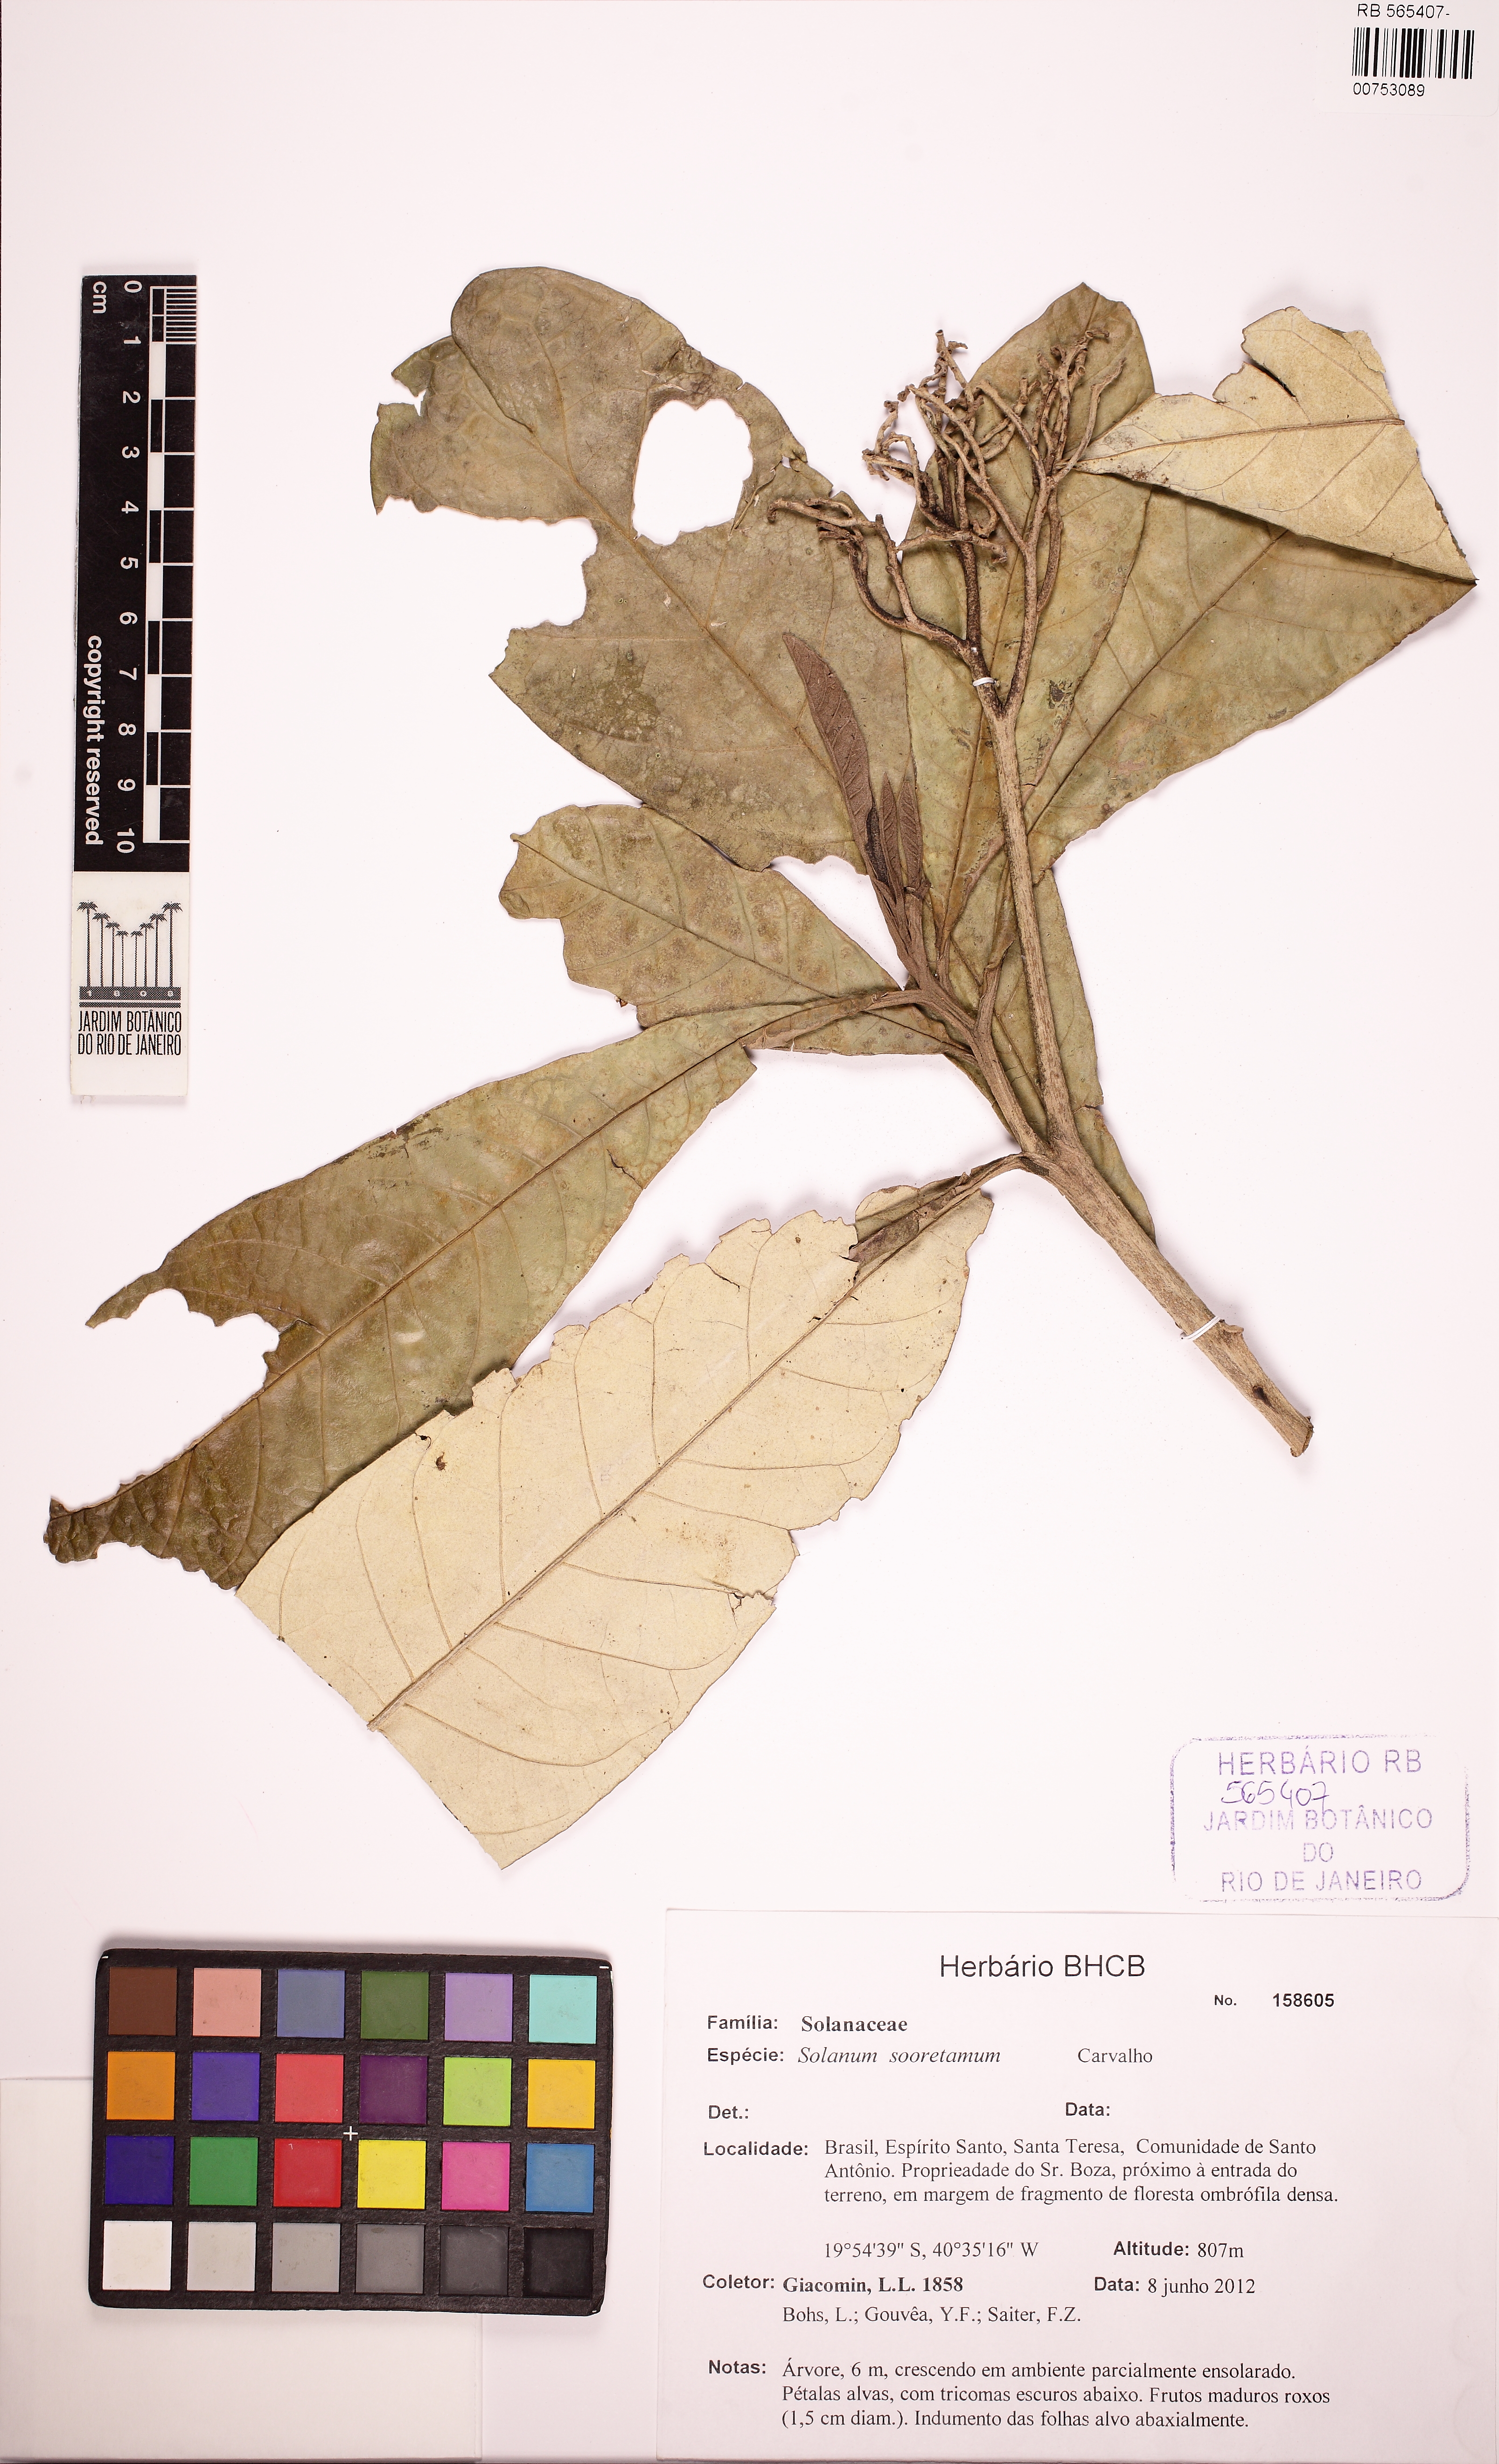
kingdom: Plantae
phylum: Tracheophyta
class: Magnoliopsida
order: Solanales
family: Solanaceae
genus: Solanum
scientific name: Solanum sooretamum
